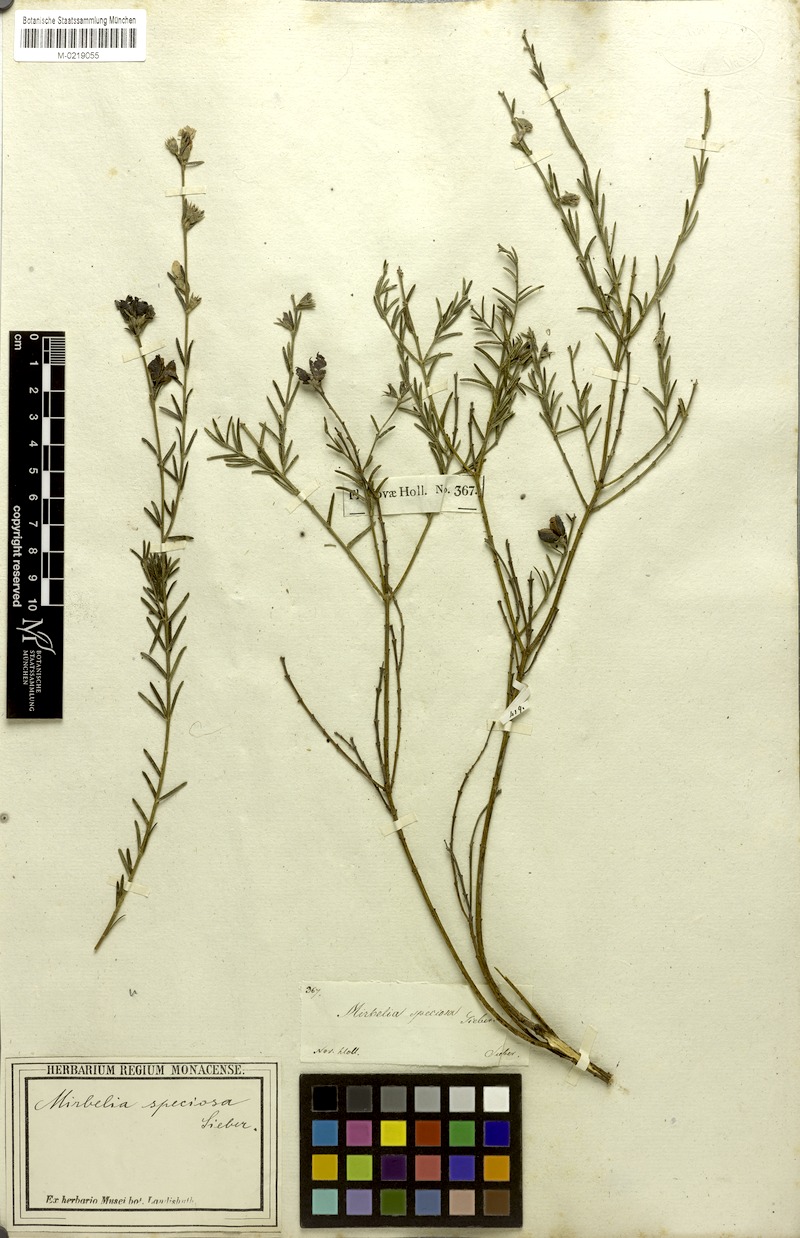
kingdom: Plantae
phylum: Tracheophyta
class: Magnoliopsida
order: Fabales
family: Fabaceae
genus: Mirbelia
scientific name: Mirbelia speciosa
